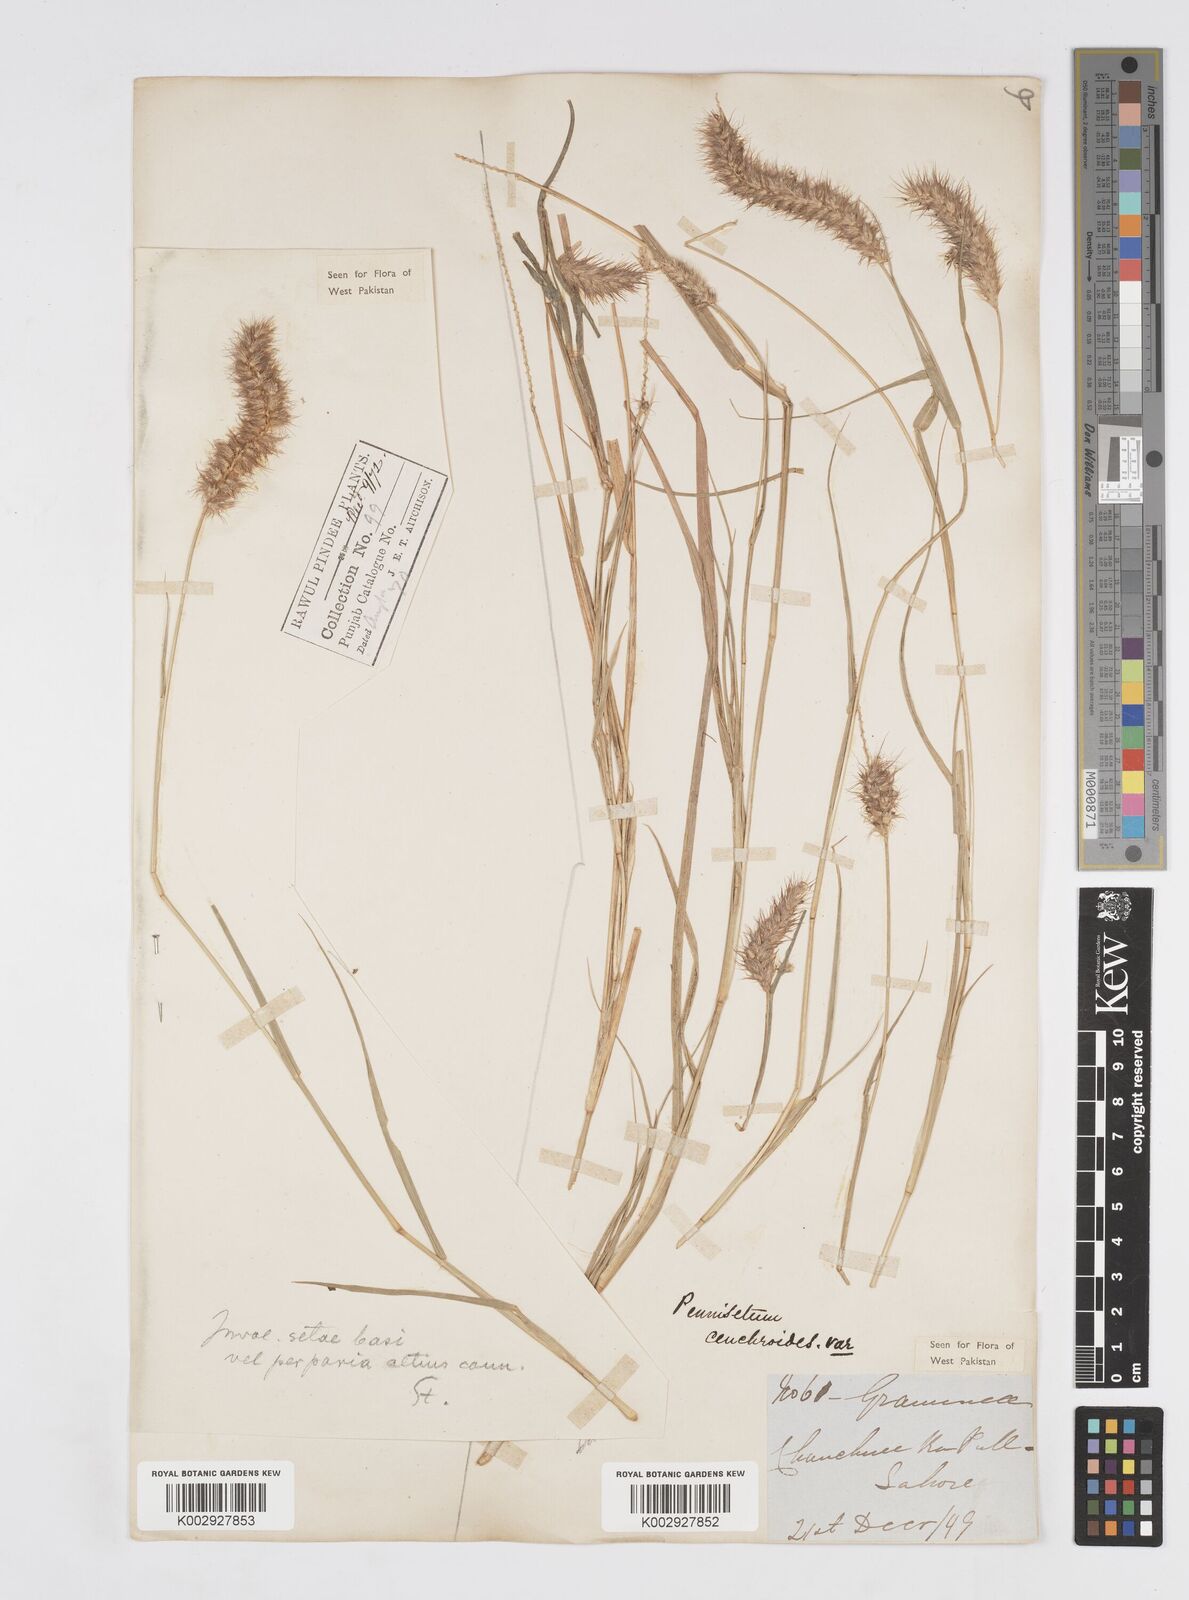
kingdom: Plantae
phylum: Tracheophyta
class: Liliopsida
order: Poales
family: Poaceae
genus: Cenchrus
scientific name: Cenchrus ciliaris
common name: Buffelgrass
